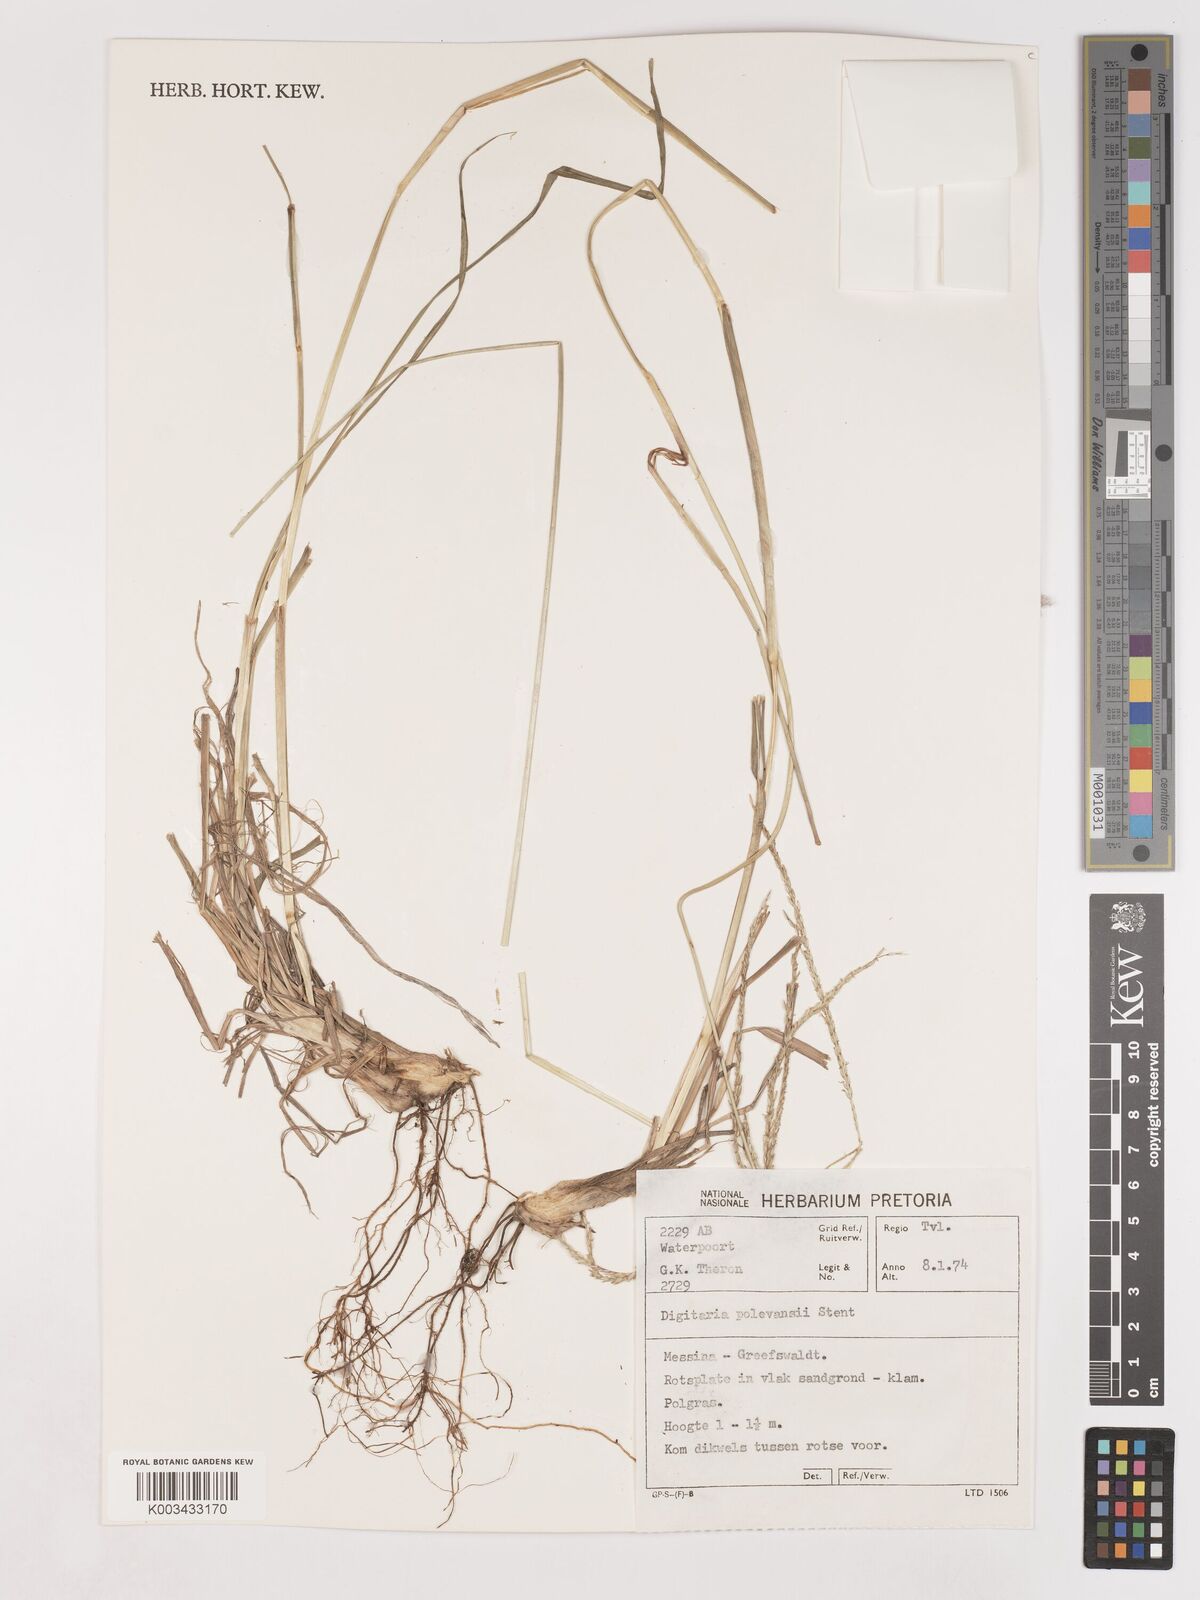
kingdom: Plantae
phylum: Tracheophyta
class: Liliopsida
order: Poales
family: Poaceae
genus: Digitaria
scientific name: Digitaria milanjiana
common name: Madagascar crabgrass
